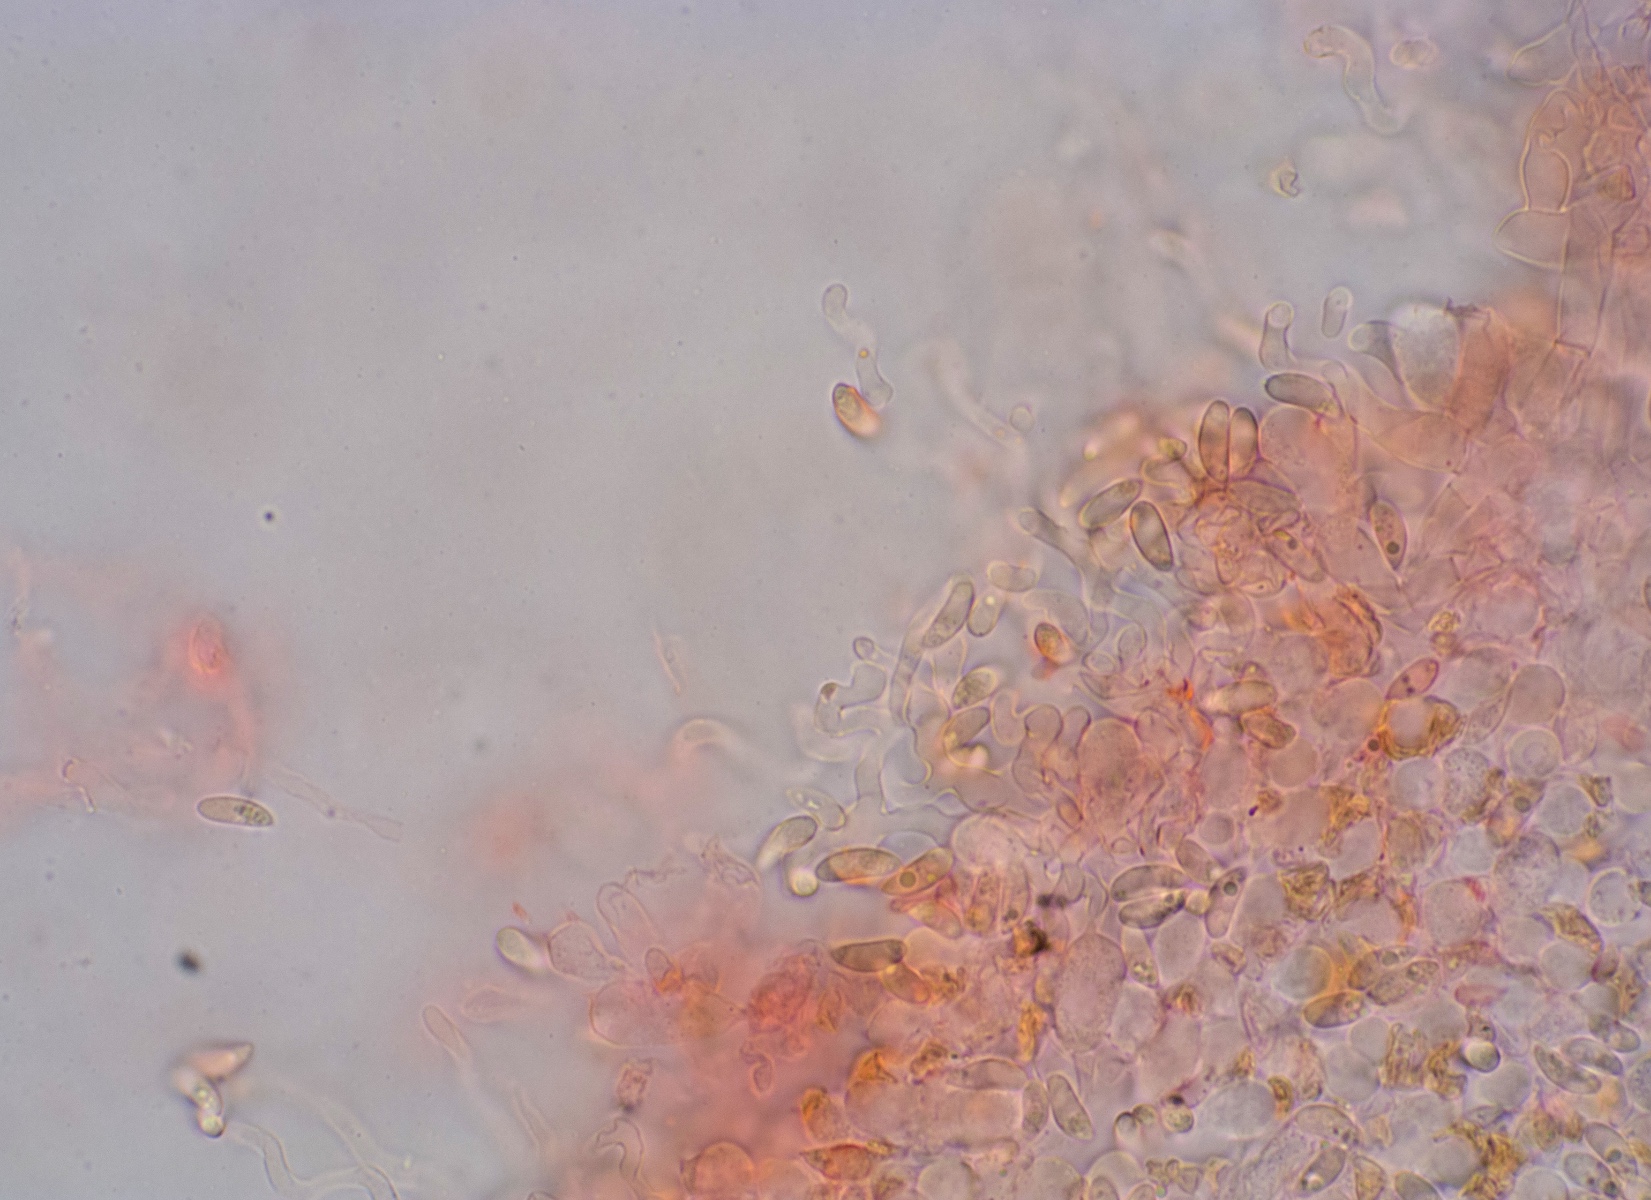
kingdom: Fungi
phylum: Basidiomycota
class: Agaricomycetes
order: Agaricales
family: Crepidotaceae
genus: Crepidotus
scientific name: Crepidotus epibryus
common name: førne-muslingesvamp
